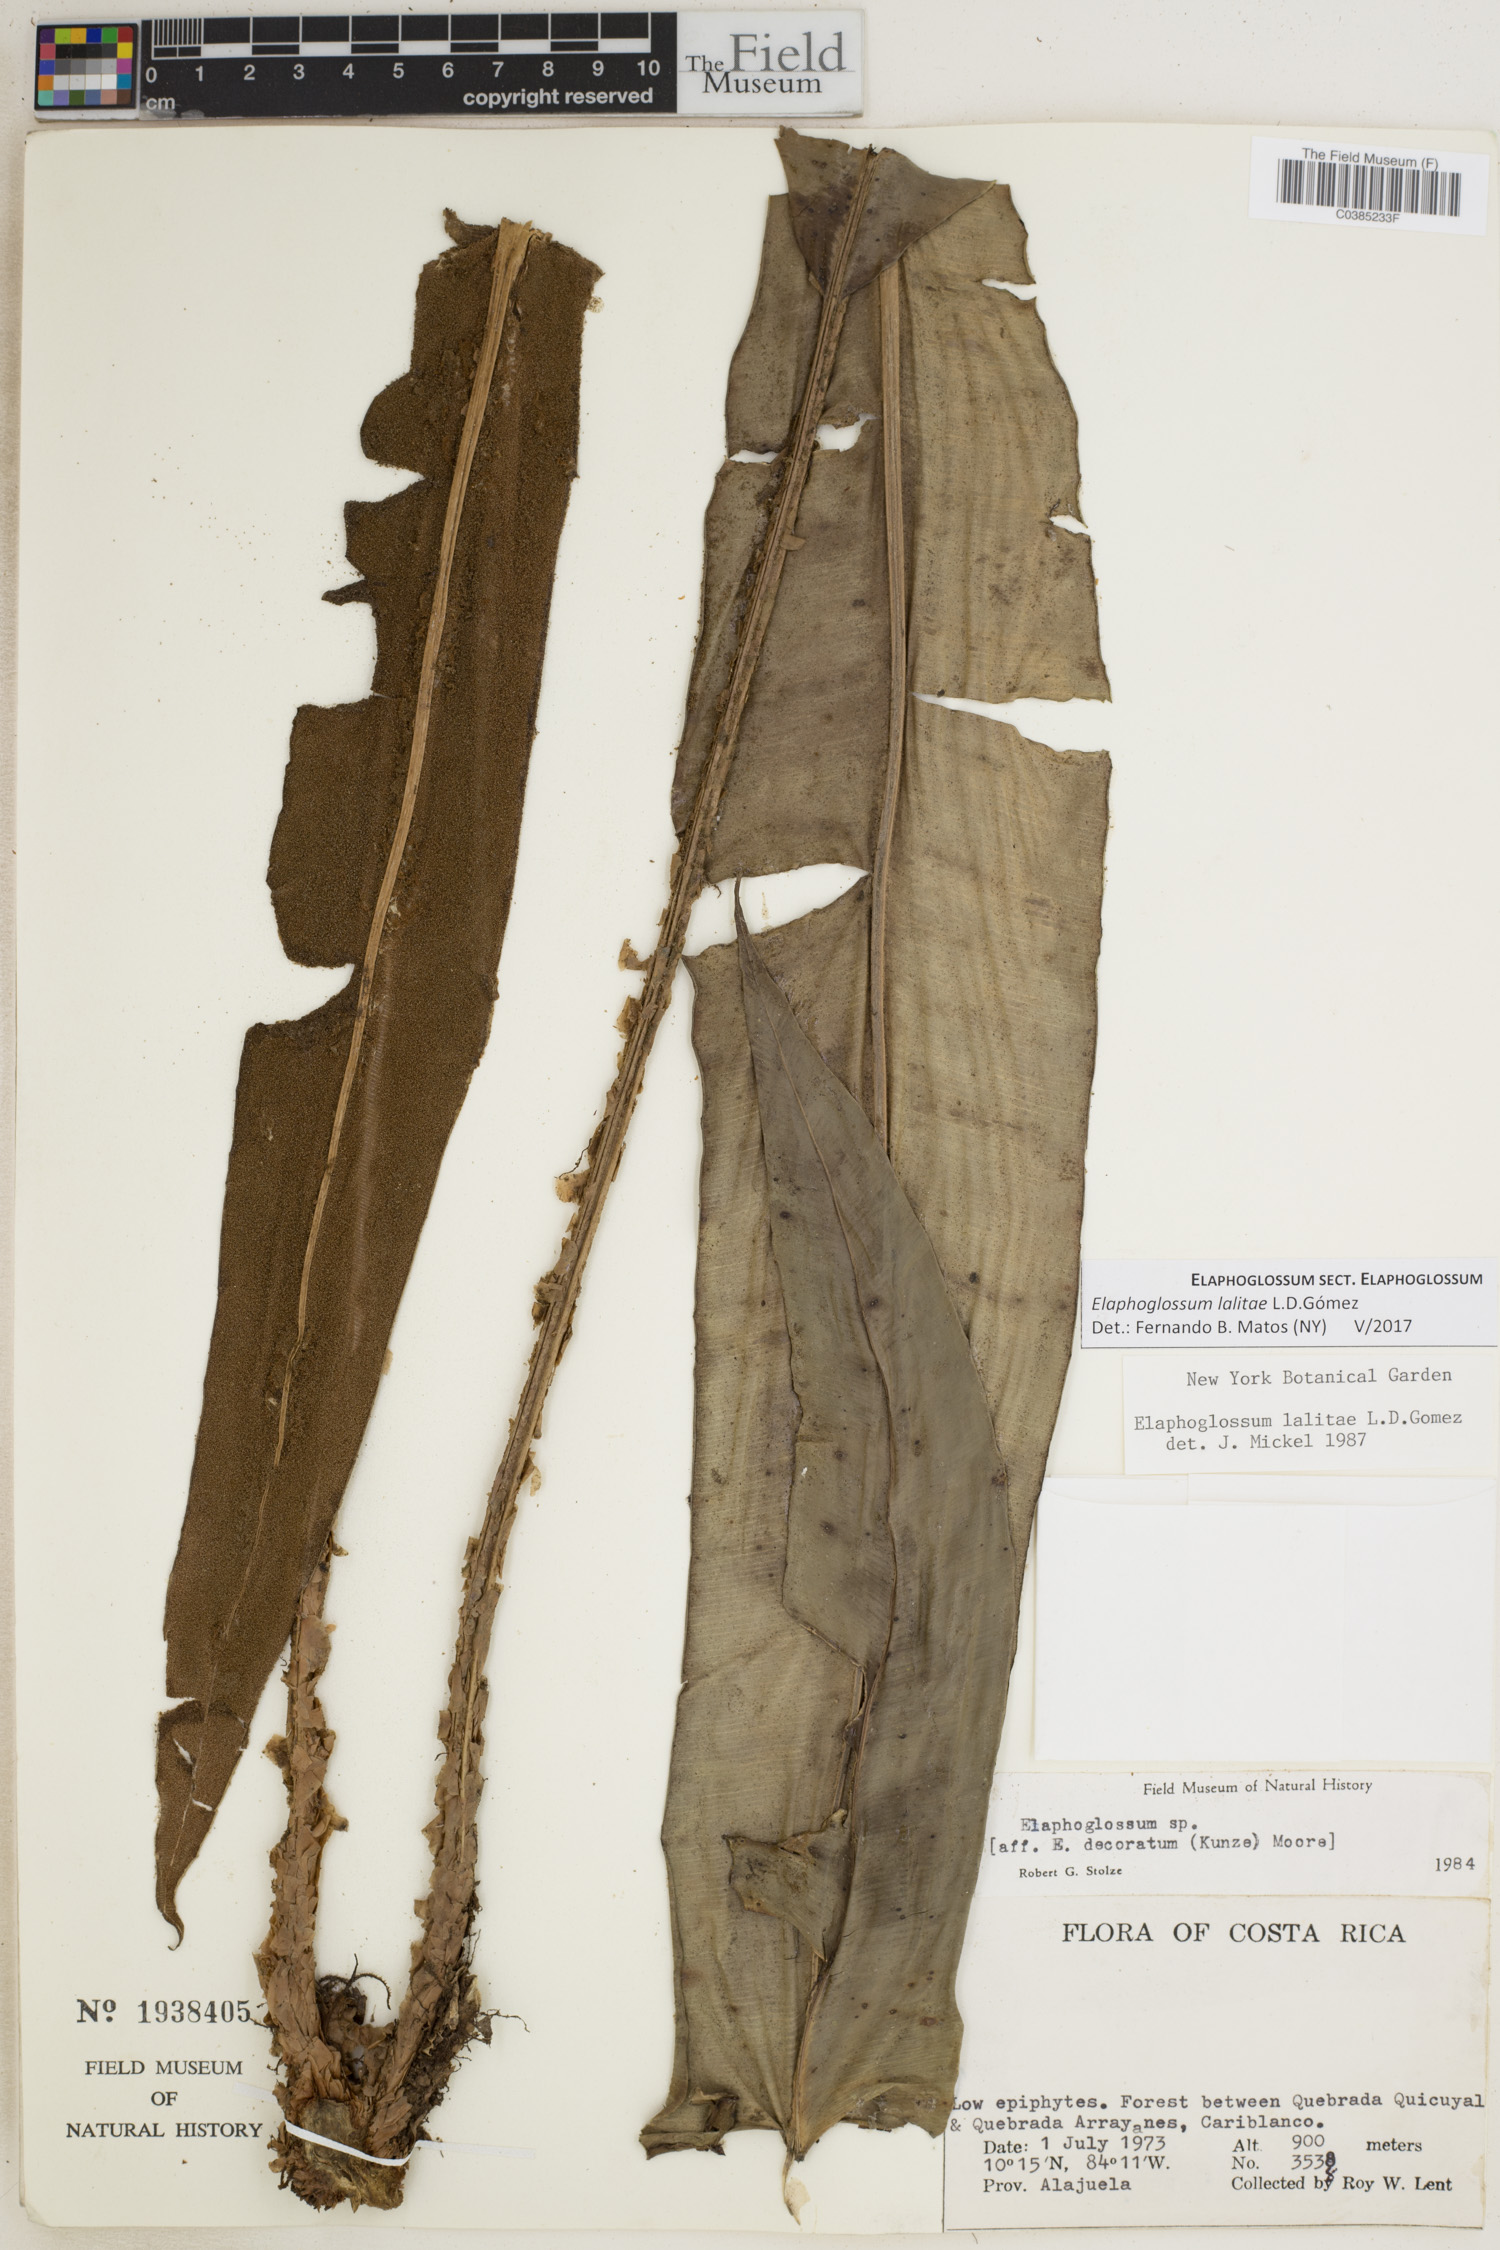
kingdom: Plantae
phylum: Tracheophyta
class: Polypodiopsida
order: Polypodiales
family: Dryopteridaceae
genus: Elaphoglossum
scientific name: Elaphoglossum lalitae
